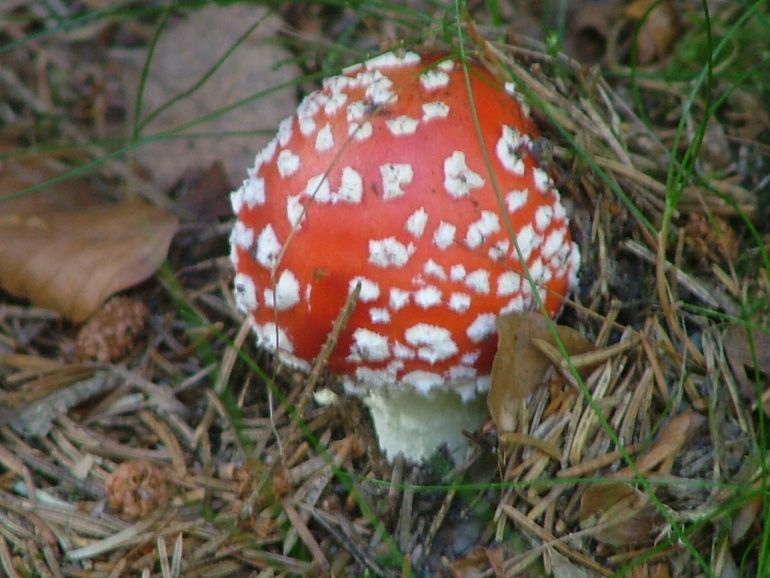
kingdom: Fungi
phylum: Basidiomycota
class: Agaricomycetes
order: Agaricales
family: Amanitaceae
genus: Amanita
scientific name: Amanita muscaria
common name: rød fluesvamp
